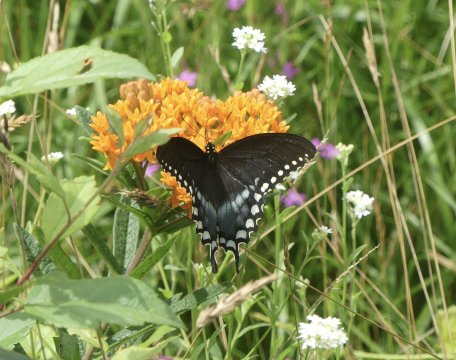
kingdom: Animalia
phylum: Arthropoda
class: Insecta
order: Lepidoptera
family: Papilionidae
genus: Pterourus
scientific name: Pterourus troilus
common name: Spicebush Swallowtail
